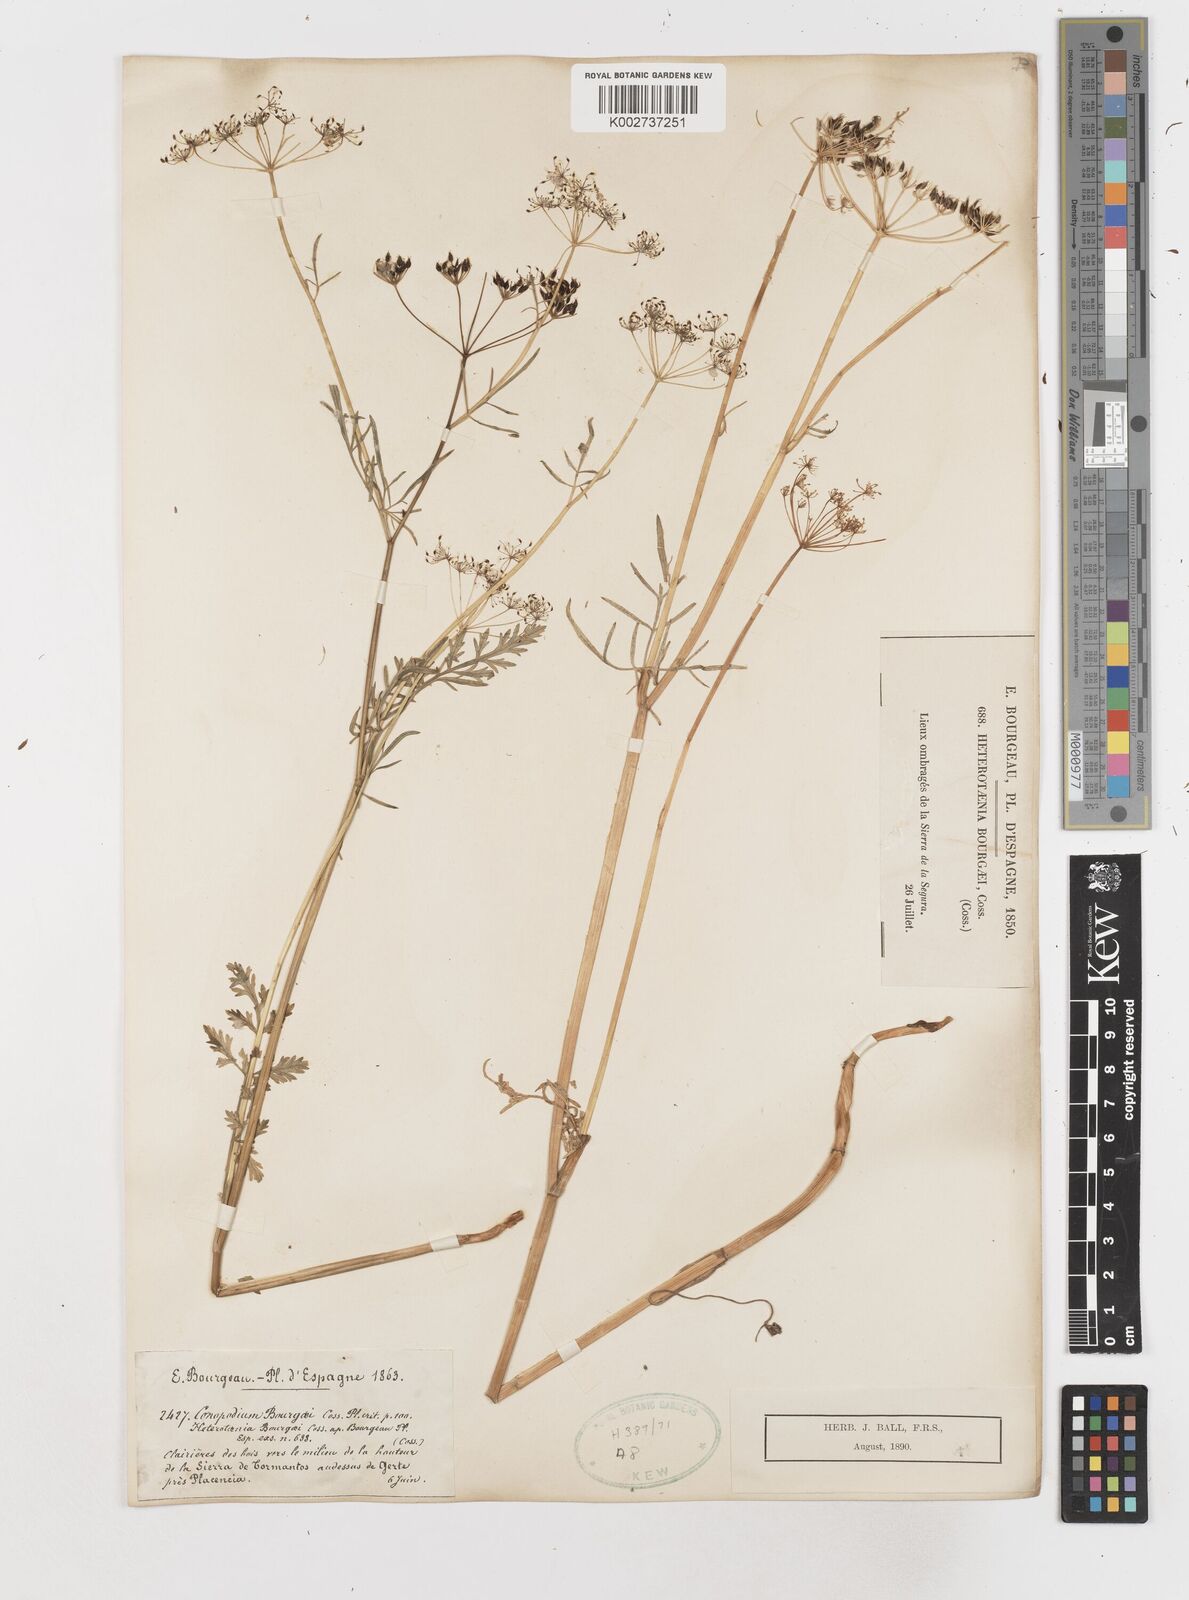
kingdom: Plantae
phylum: Tracheophyta
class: Magnoliopsida
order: Apiales
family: Apiaceae
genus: Conopodium
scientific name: Conopodium pyrenaeum
